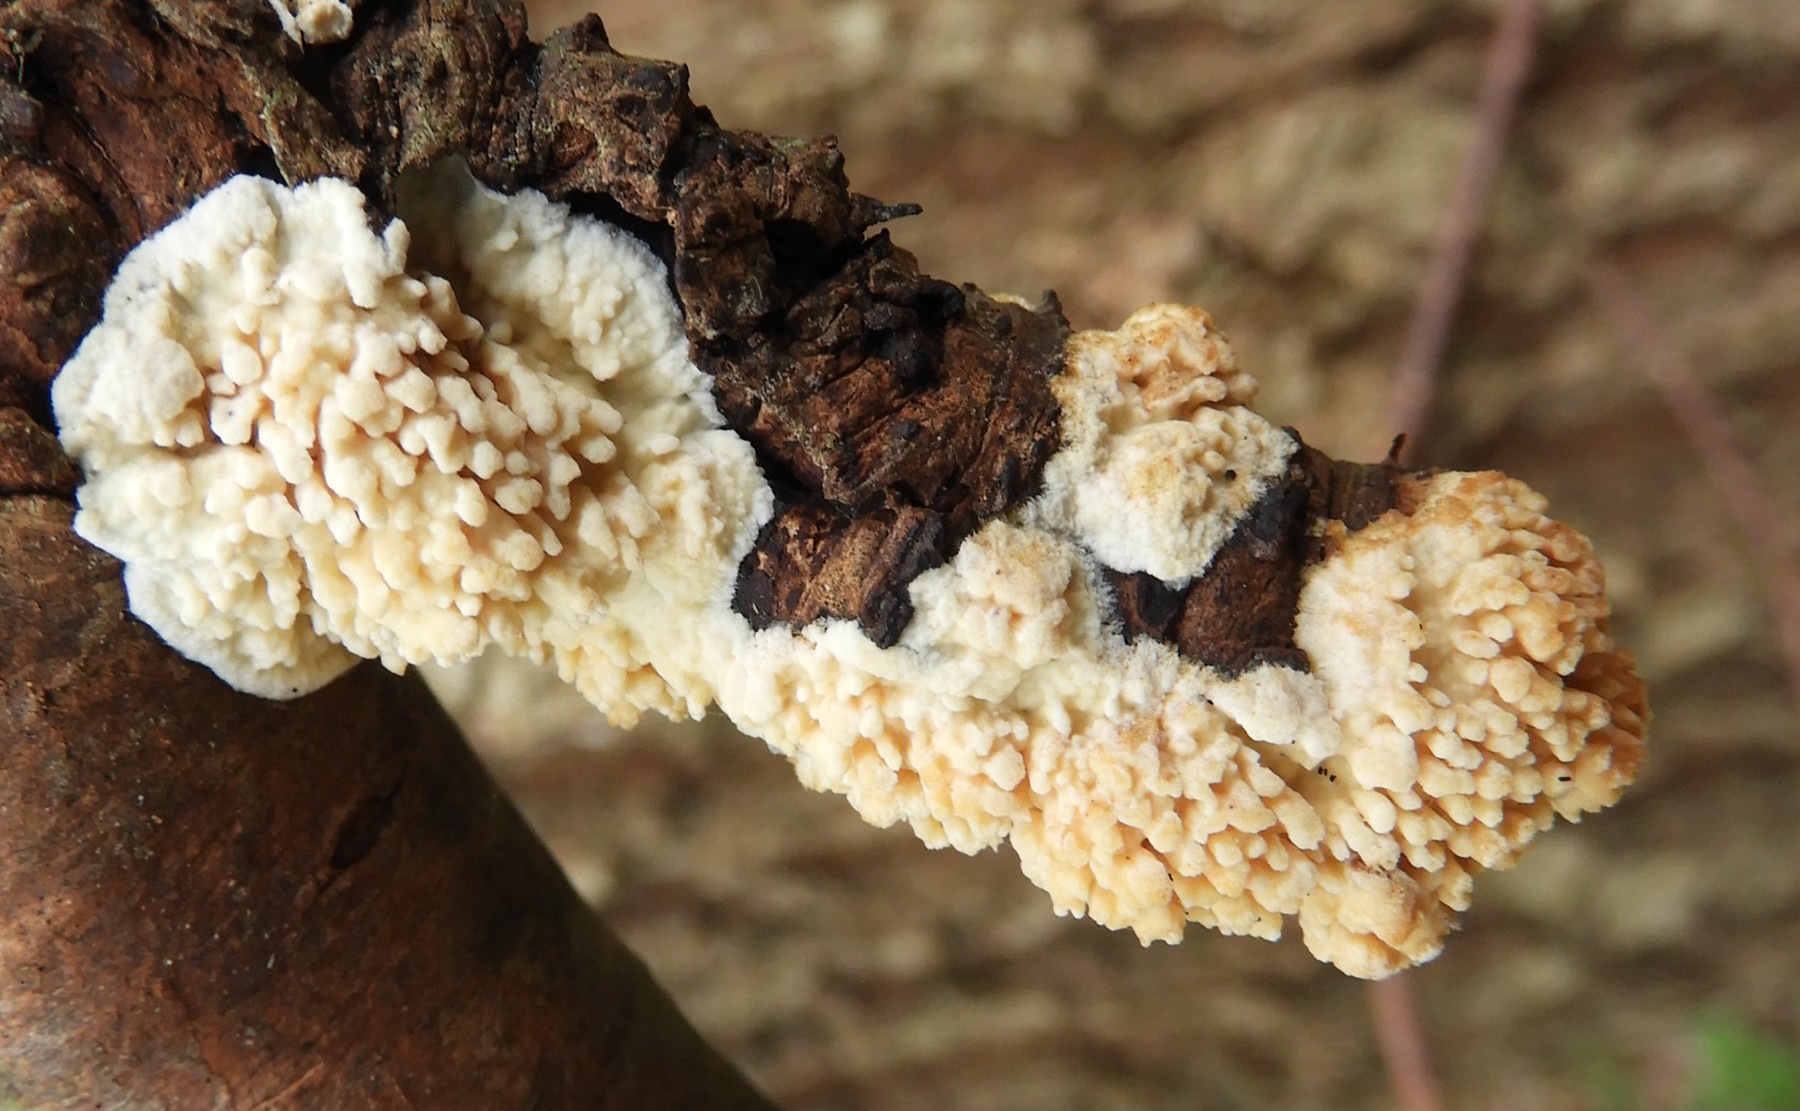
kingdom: Fungi
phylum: Basidiomycota
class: Agaricomycetes
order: Hymenochaetales
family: Schizoporaceae
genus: Xylodon
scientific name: Xylodon radula
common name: grovtandet kalkskind
